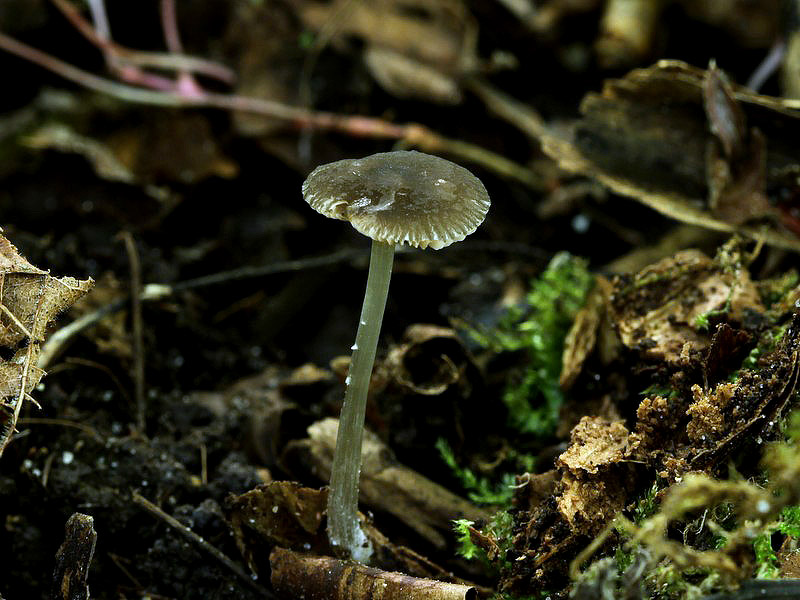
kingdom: Fungi
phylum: Basidiomycota
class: Agaricomycetes
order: Agaricales
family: Pluteaceae
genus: Pluteus
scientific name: Pluteus
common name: pudret skærmhat
